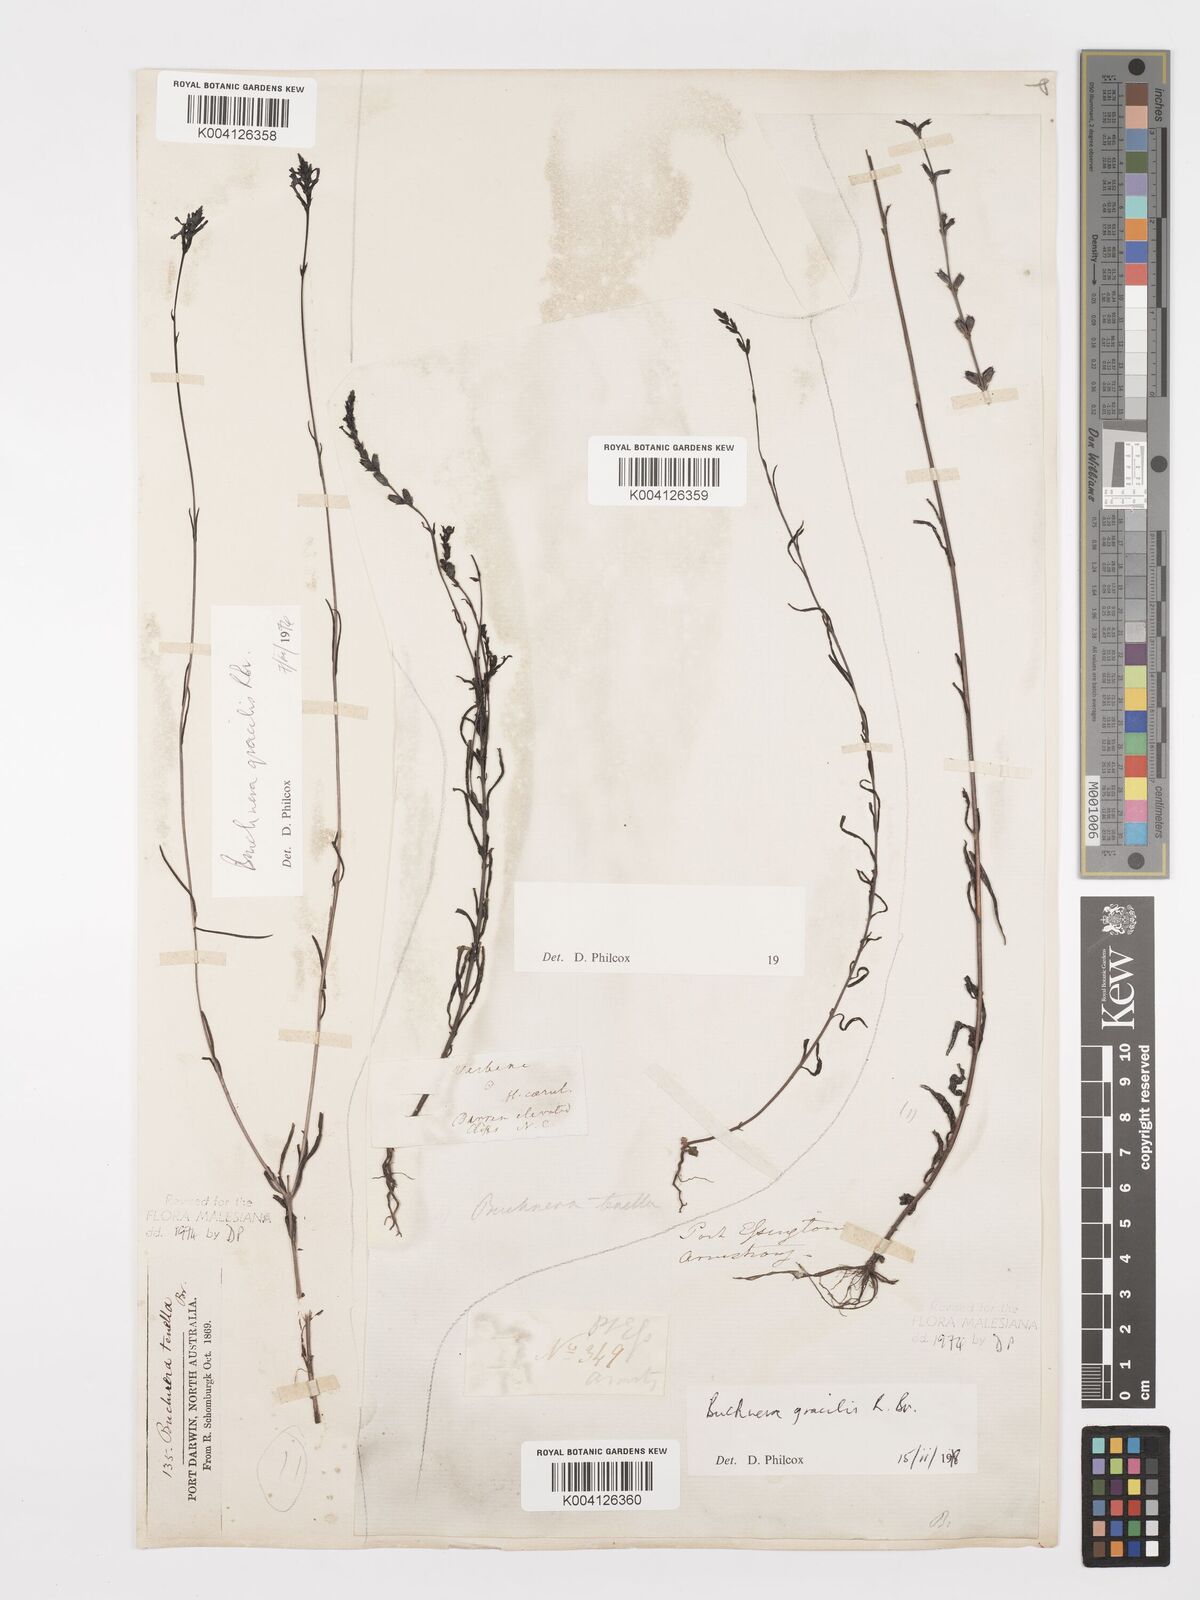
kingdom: Plantae
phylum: Tracheophyta
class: Magnoliopsida
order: Lamiales
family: Orobanchaceae
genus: Buchnera
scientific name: Buchnera gracilis
